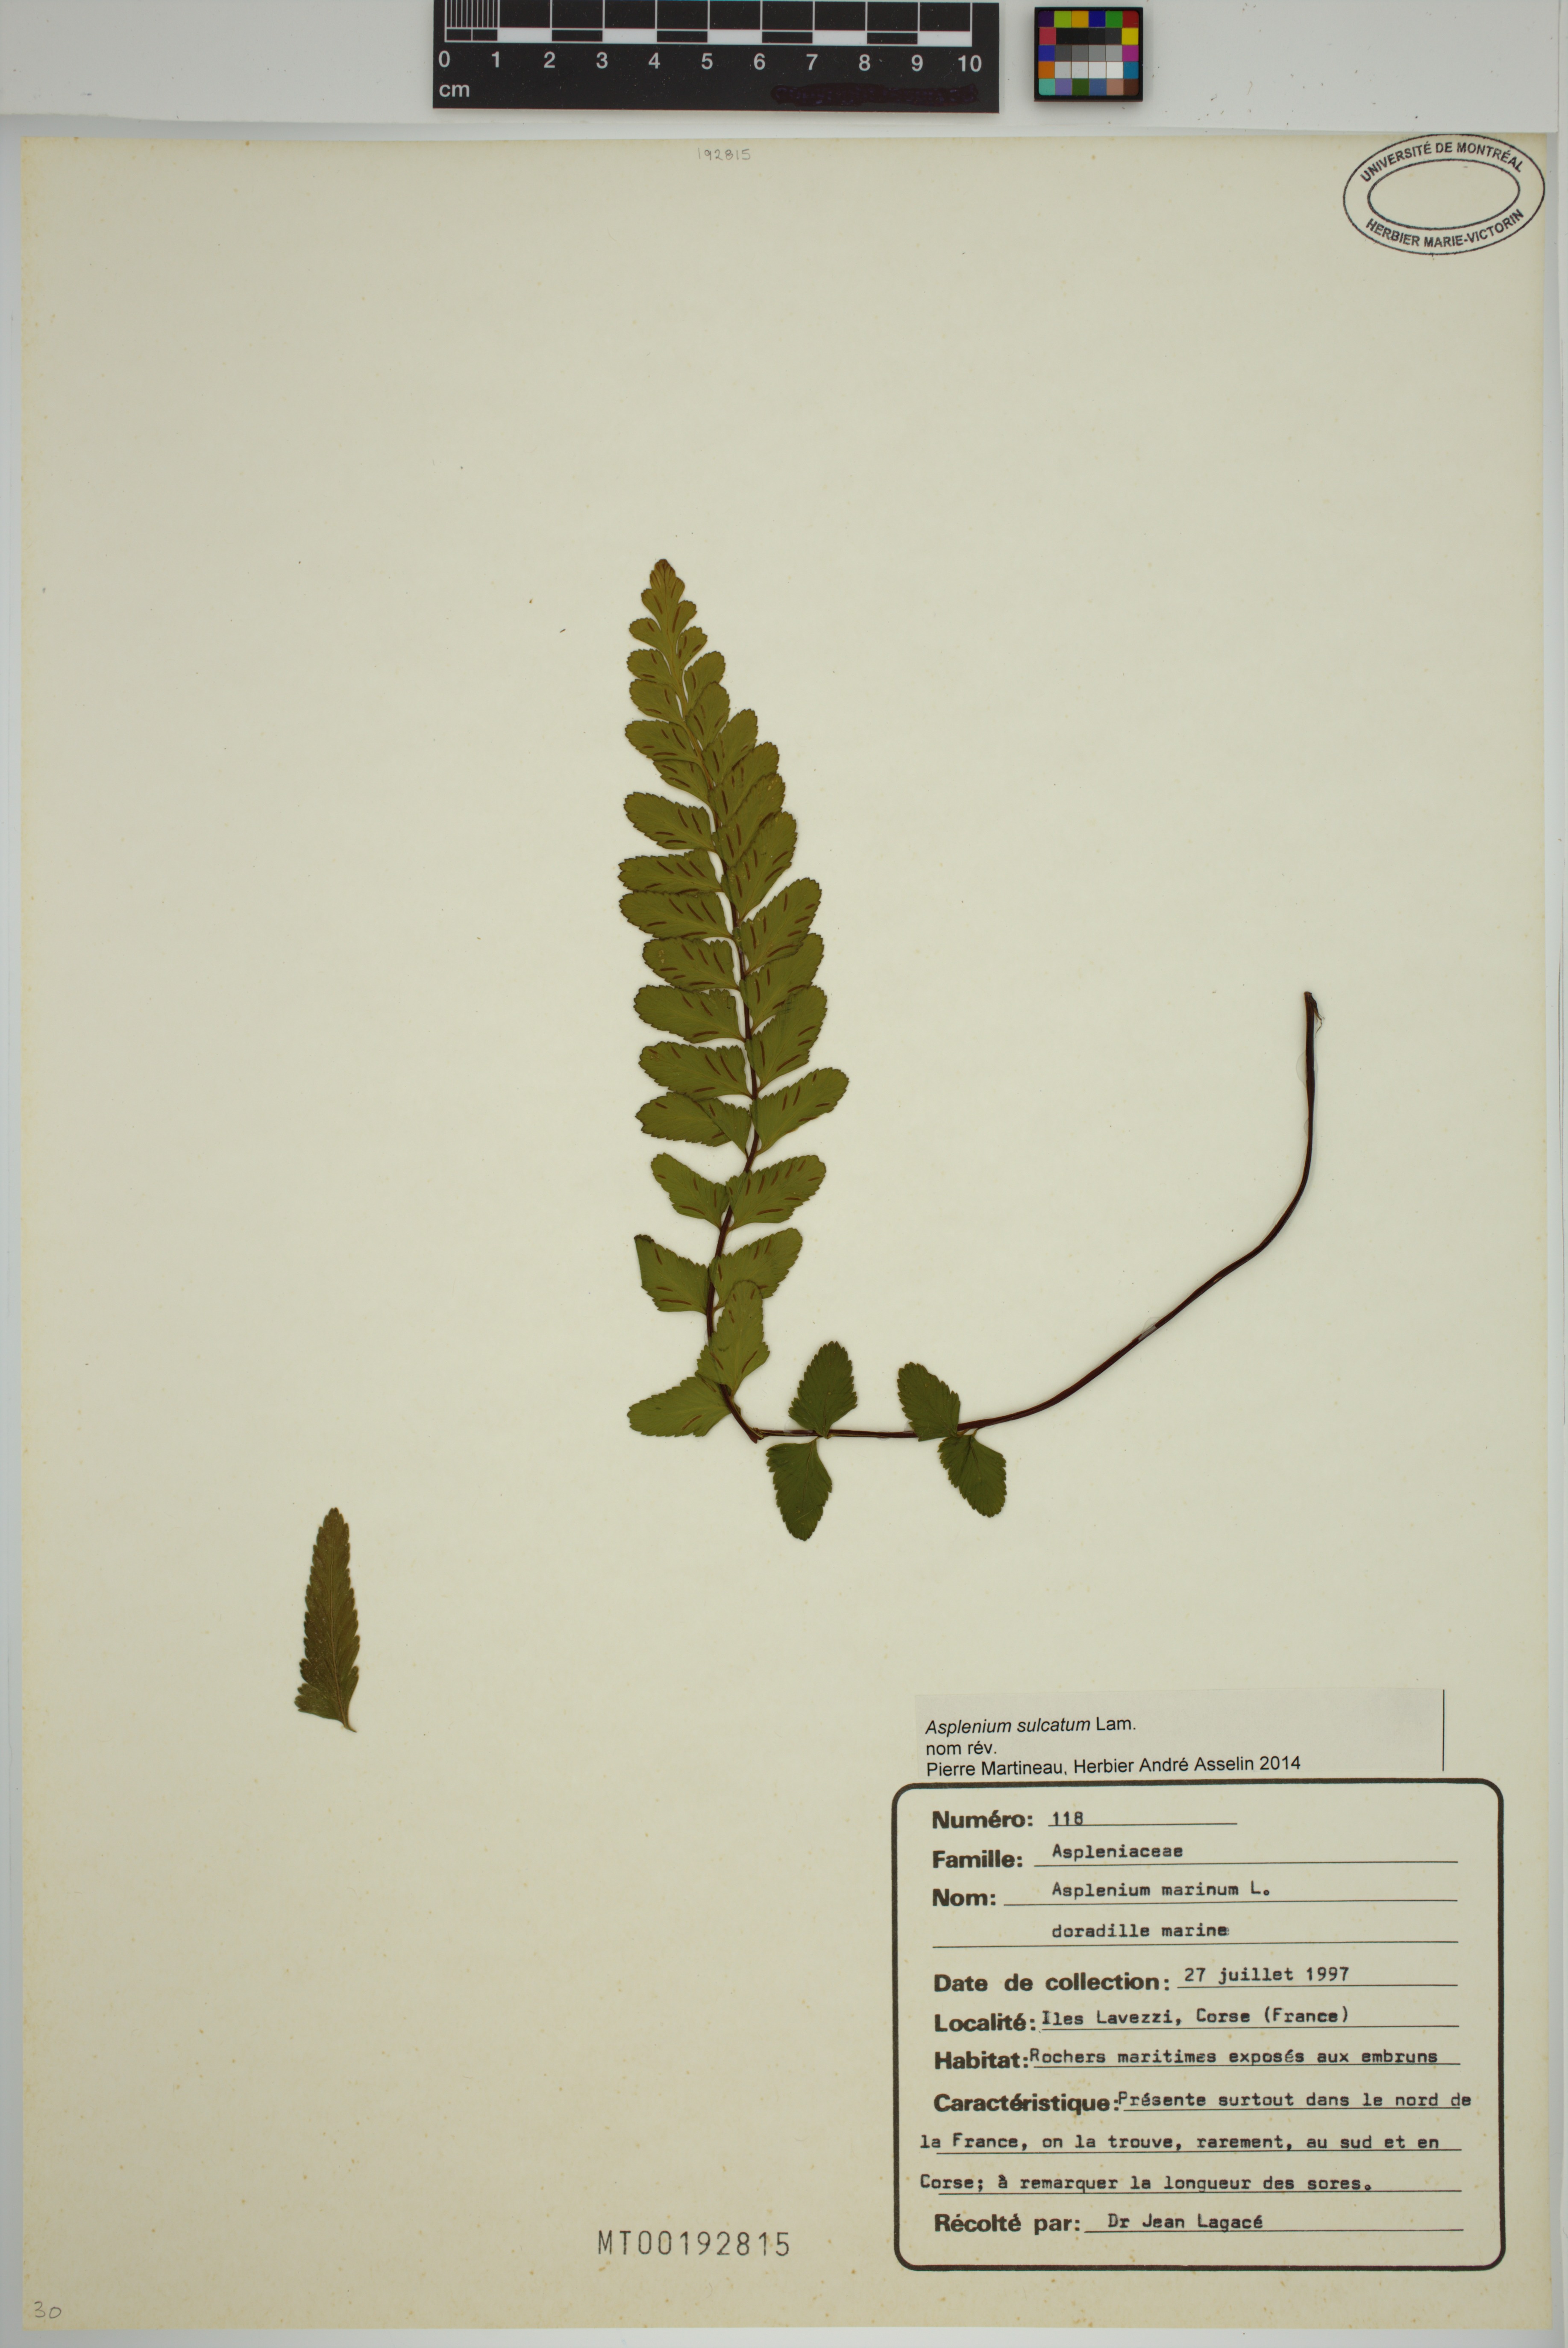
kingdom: Plantae
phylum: Tracheophyta
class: Polypodiopsida
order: Polypodiales
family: Aspleniaceae
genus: Asplenium
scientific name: Asplenium sulcatum
